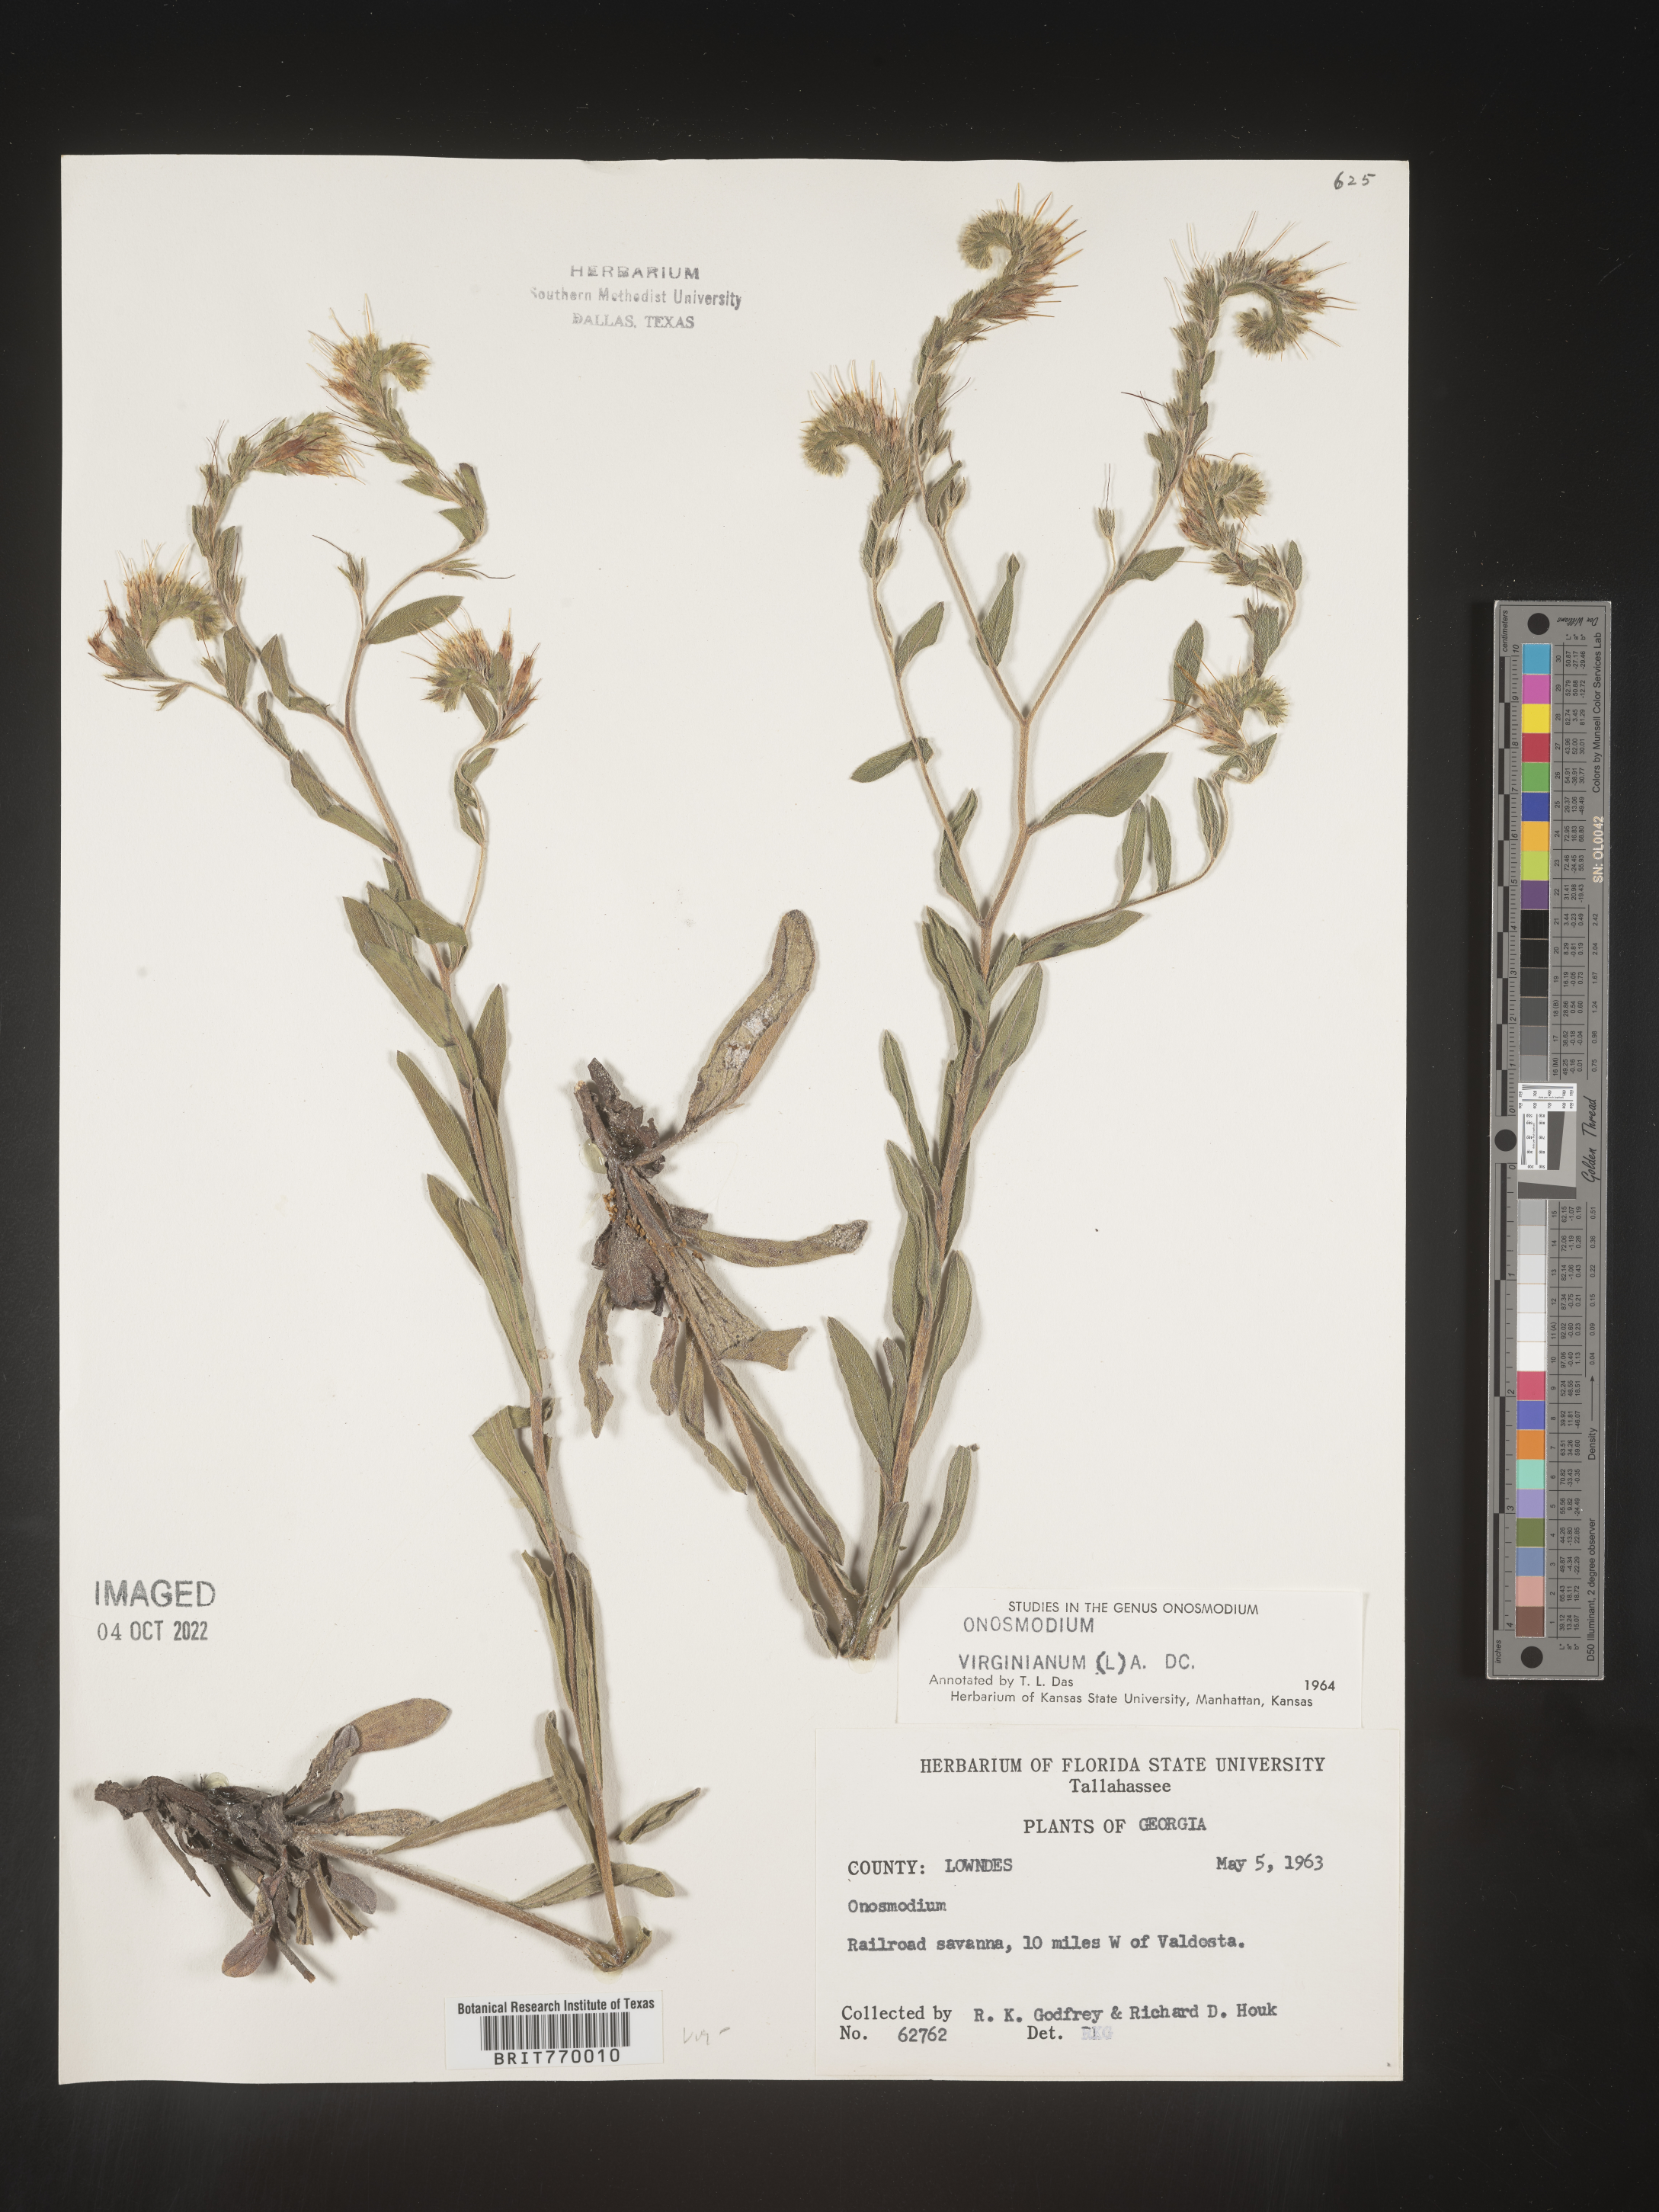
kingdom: Plantae
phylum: Tracheophyta
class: Magnoliopsida
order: Boraginales
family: Boraginaceae
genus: Lithospermum
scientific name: Lithospermum virginianum
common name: Eastern false gromwell
